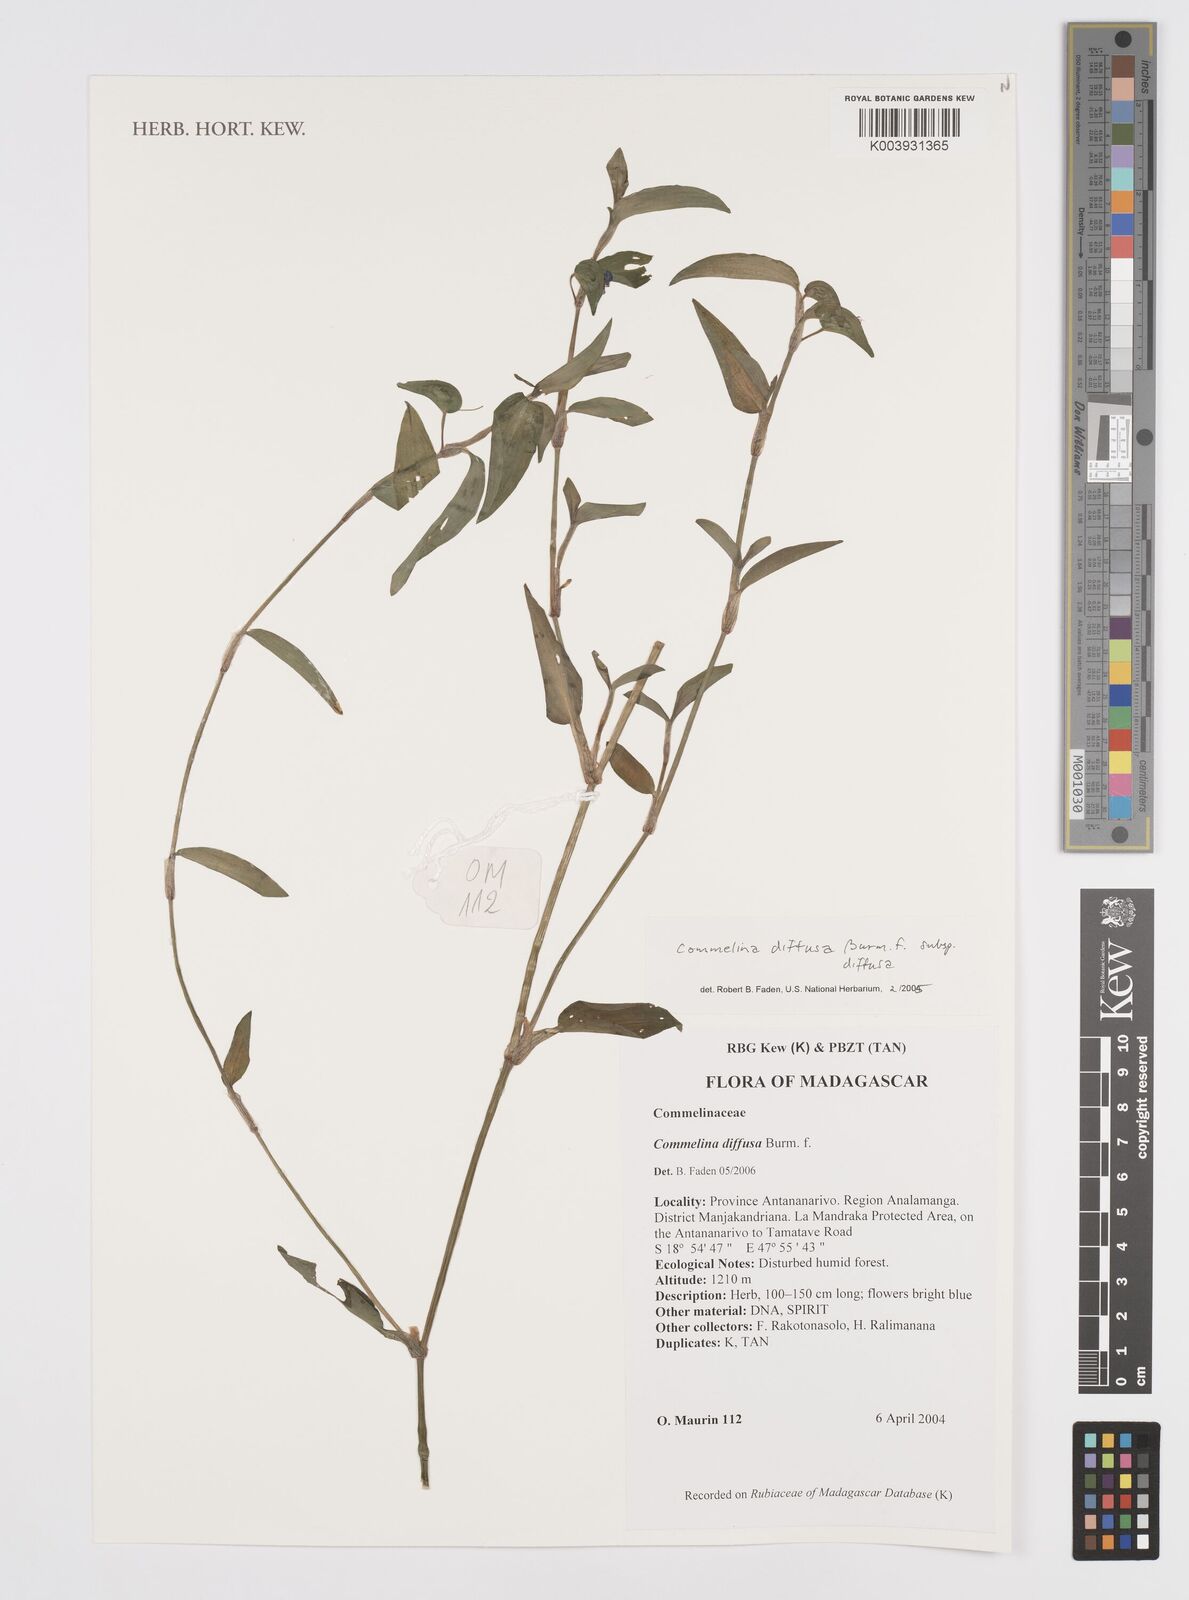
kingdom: Plantae
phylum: Tracheophyta
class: Liliopsida
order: Commelinales
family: Commelinaceae
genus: Commelina
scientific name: Commelina diffusa
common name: Climbing dayflower
